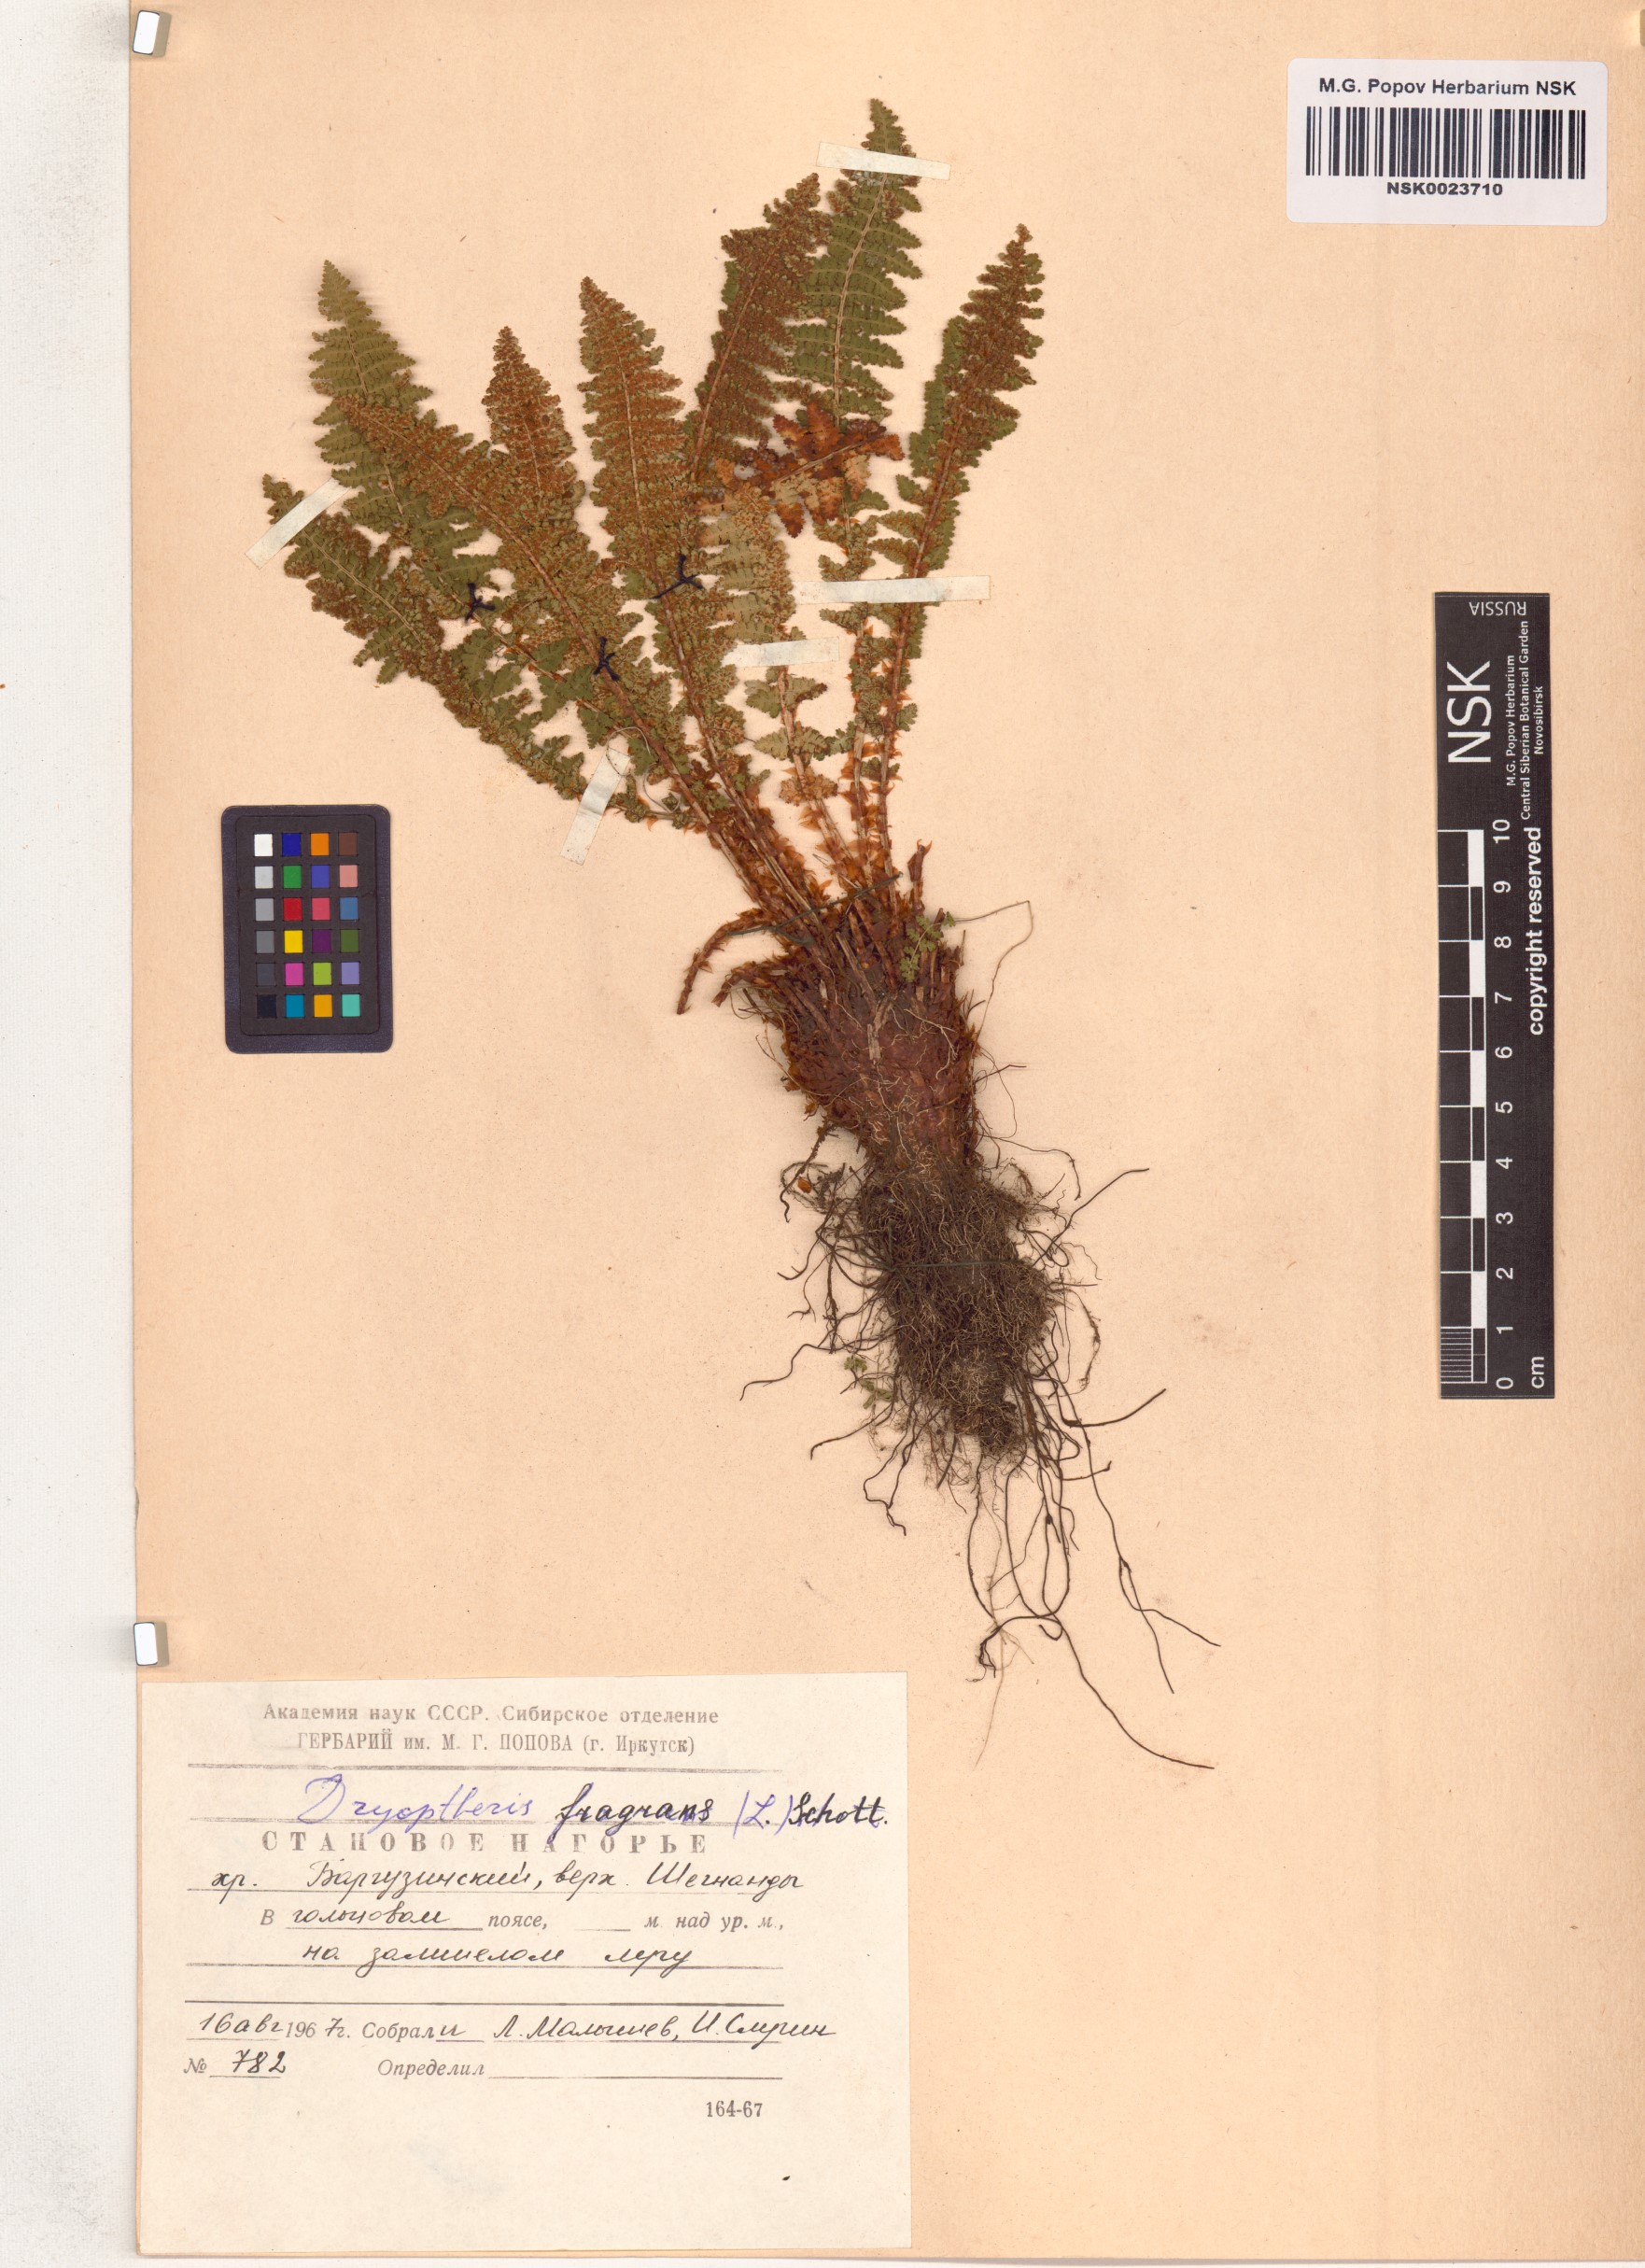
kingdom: Plantae
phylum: Tracheophyta
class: Polypodiopsida
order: Polypodiales
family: Dryopteridaceae
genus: Dryopteris
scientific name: Dryopteris fragrans
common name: Fragrant wood fern
